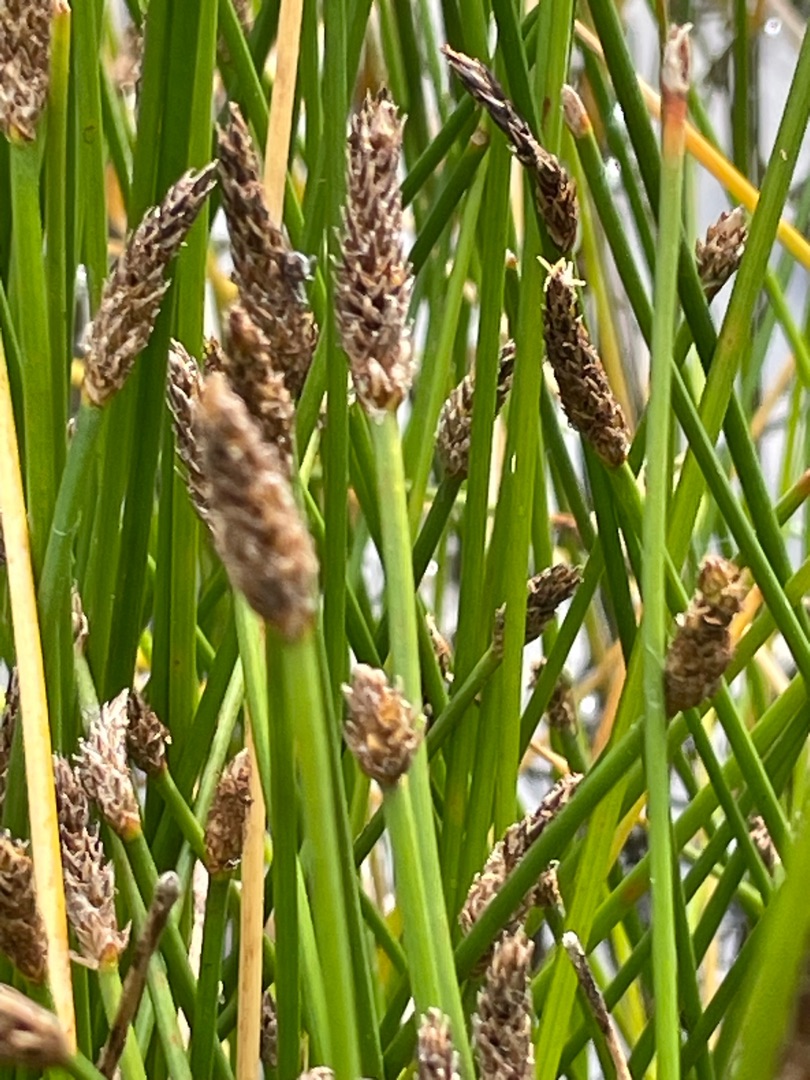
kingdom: Plantae
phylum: Tracheophyta
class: Liliopsida
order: Poales
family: Cyperaceae
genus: Eleocharis
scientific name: Eleocharis palustris
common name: Almindelig sumpstrå
